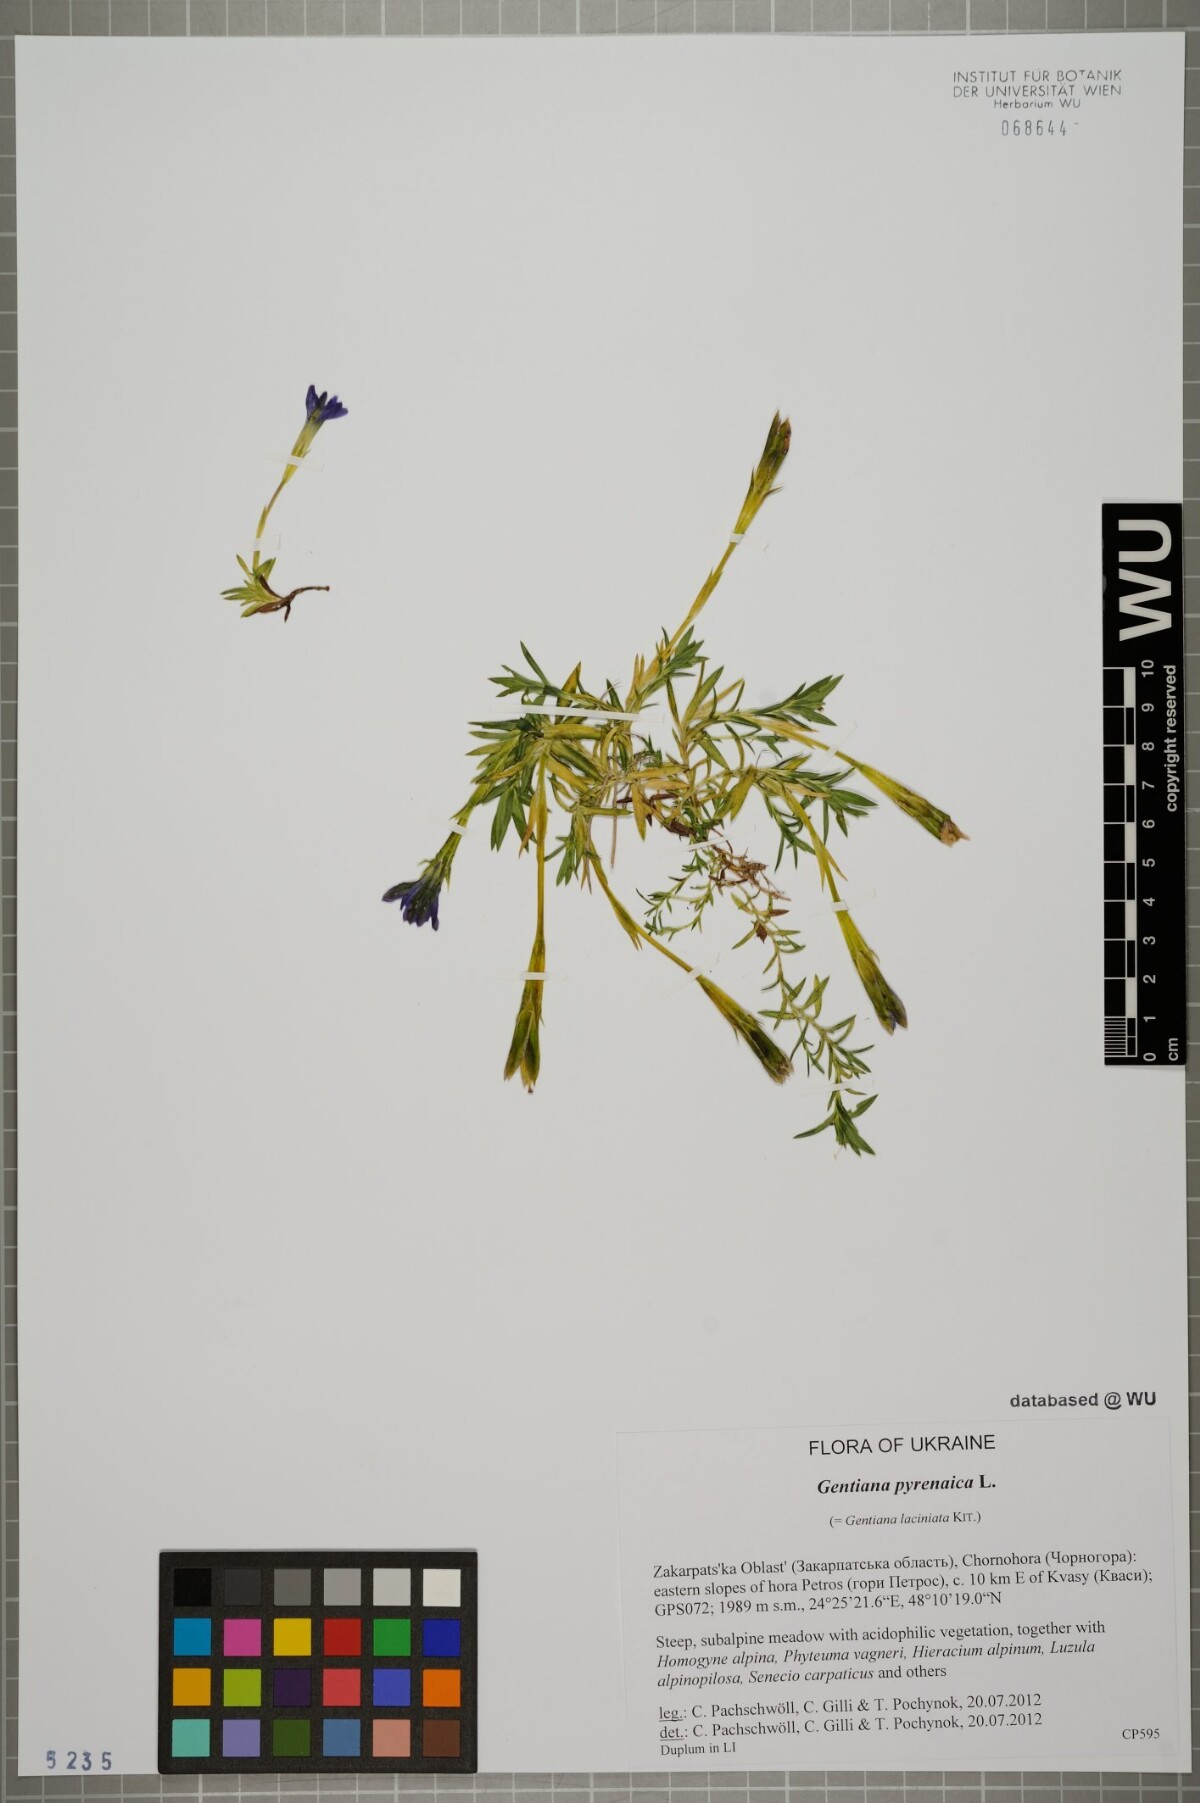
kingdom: Plantae
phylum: Tracheophyta
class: Magnoliopsida
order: Gentianales
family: Gentianaceae
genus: Gentiana
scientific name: Gentiana pyrenaica
